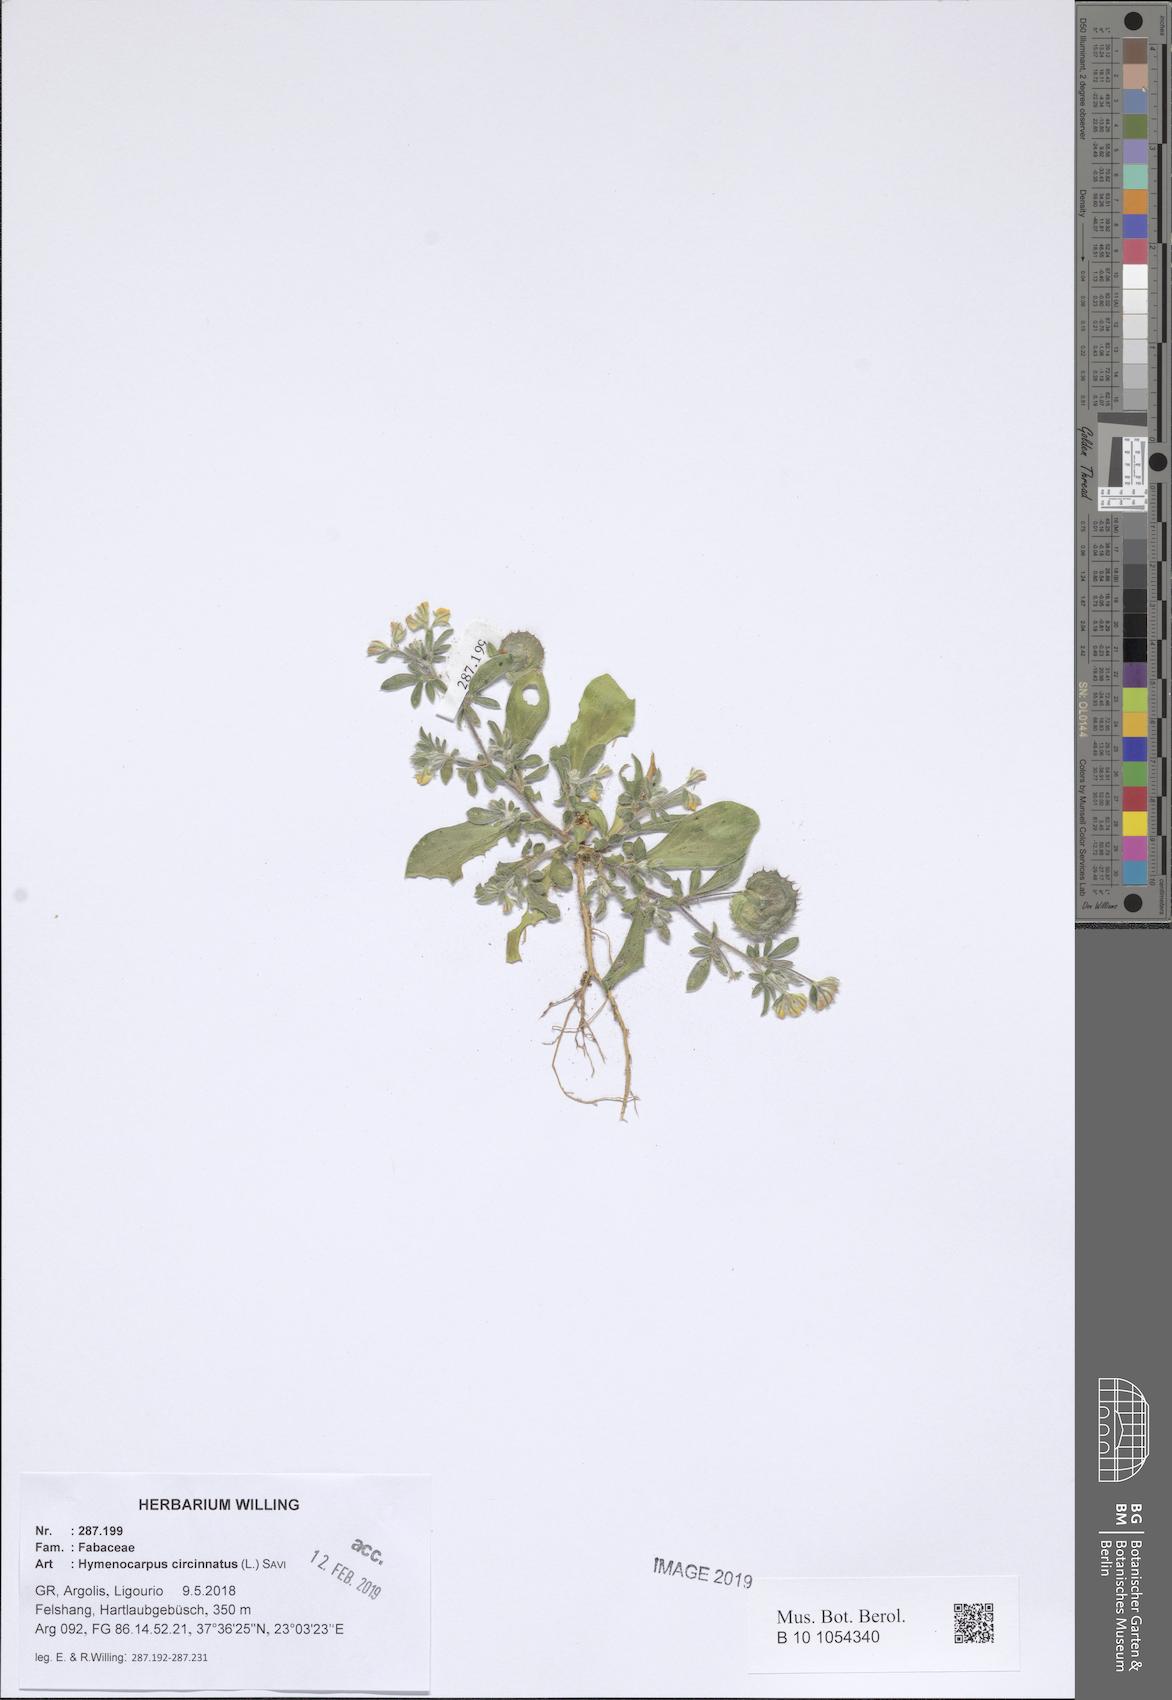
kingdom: Plantae
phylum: Tracheophyta
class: Magnoliopsida
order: Fabales
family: Fabaceae
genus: Anthyllis
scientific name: Anthyllis circinnata
